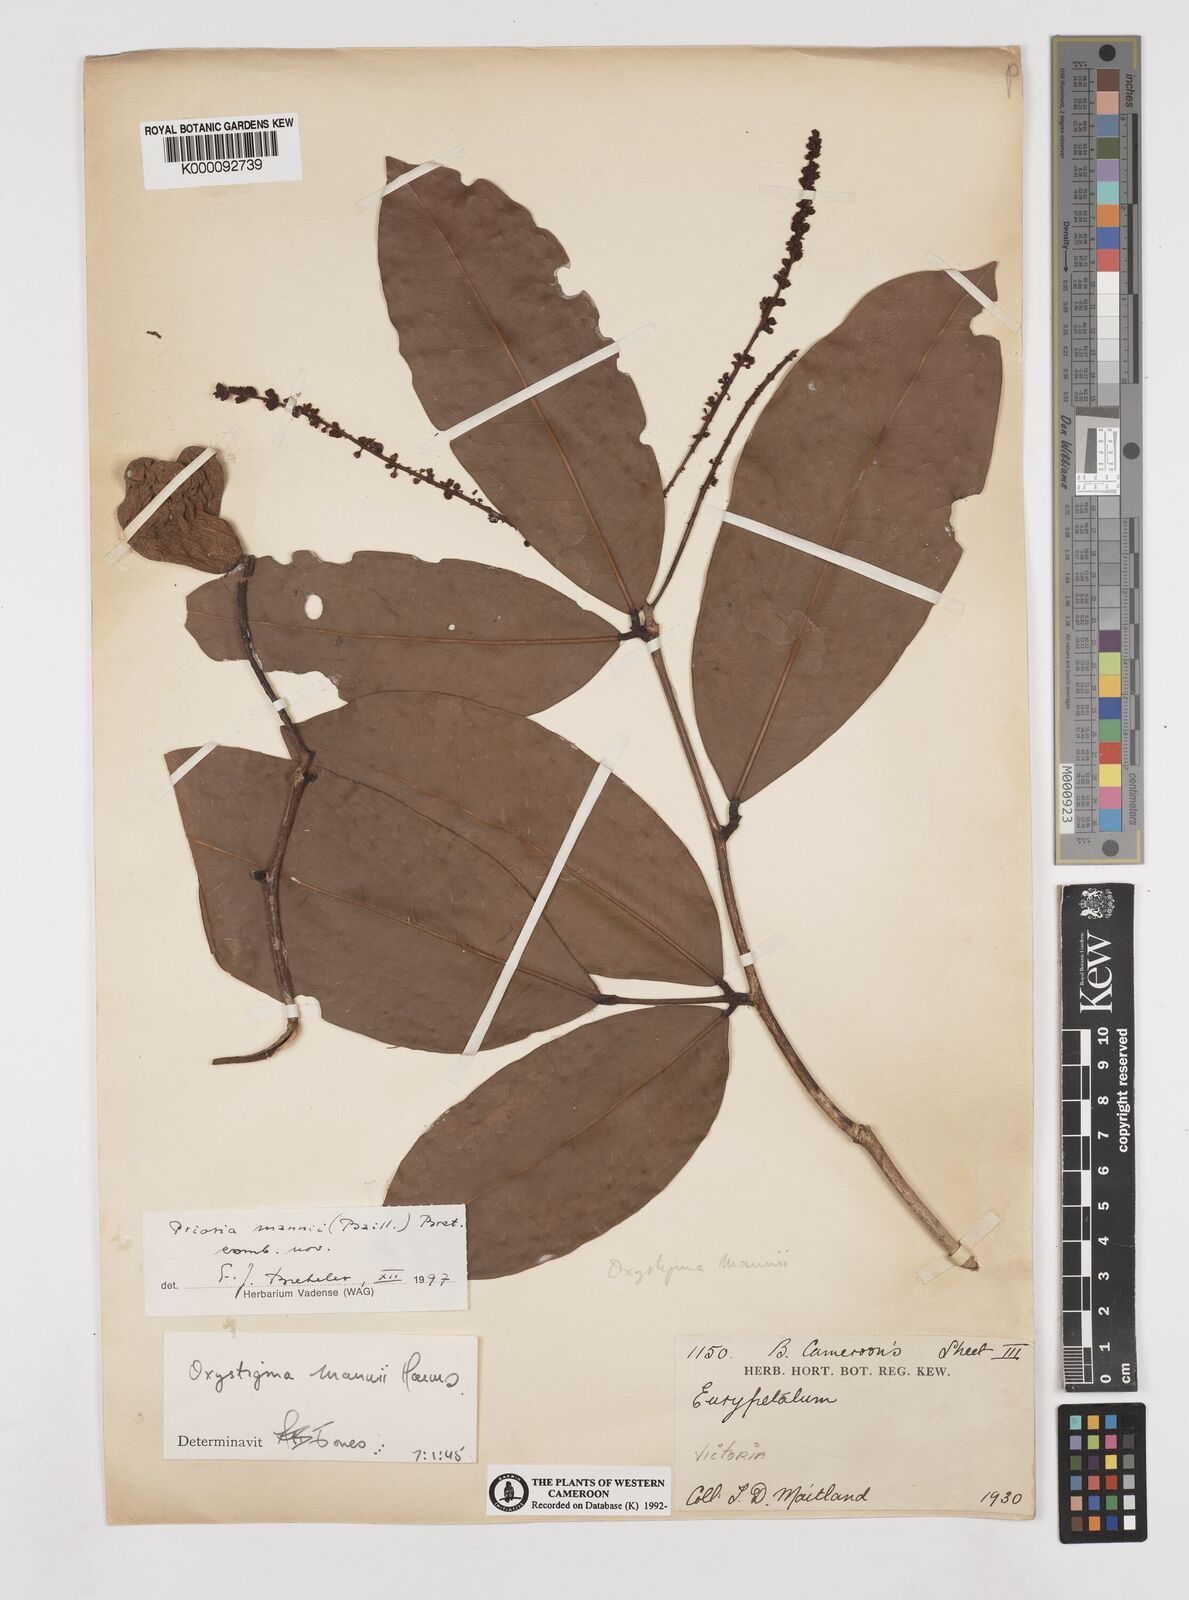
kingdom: Plantae
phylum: Tracheophyta
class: Magnoliopsida
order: Fabales
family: Fabaceae
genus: Prioria
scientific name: Prioria mannii
